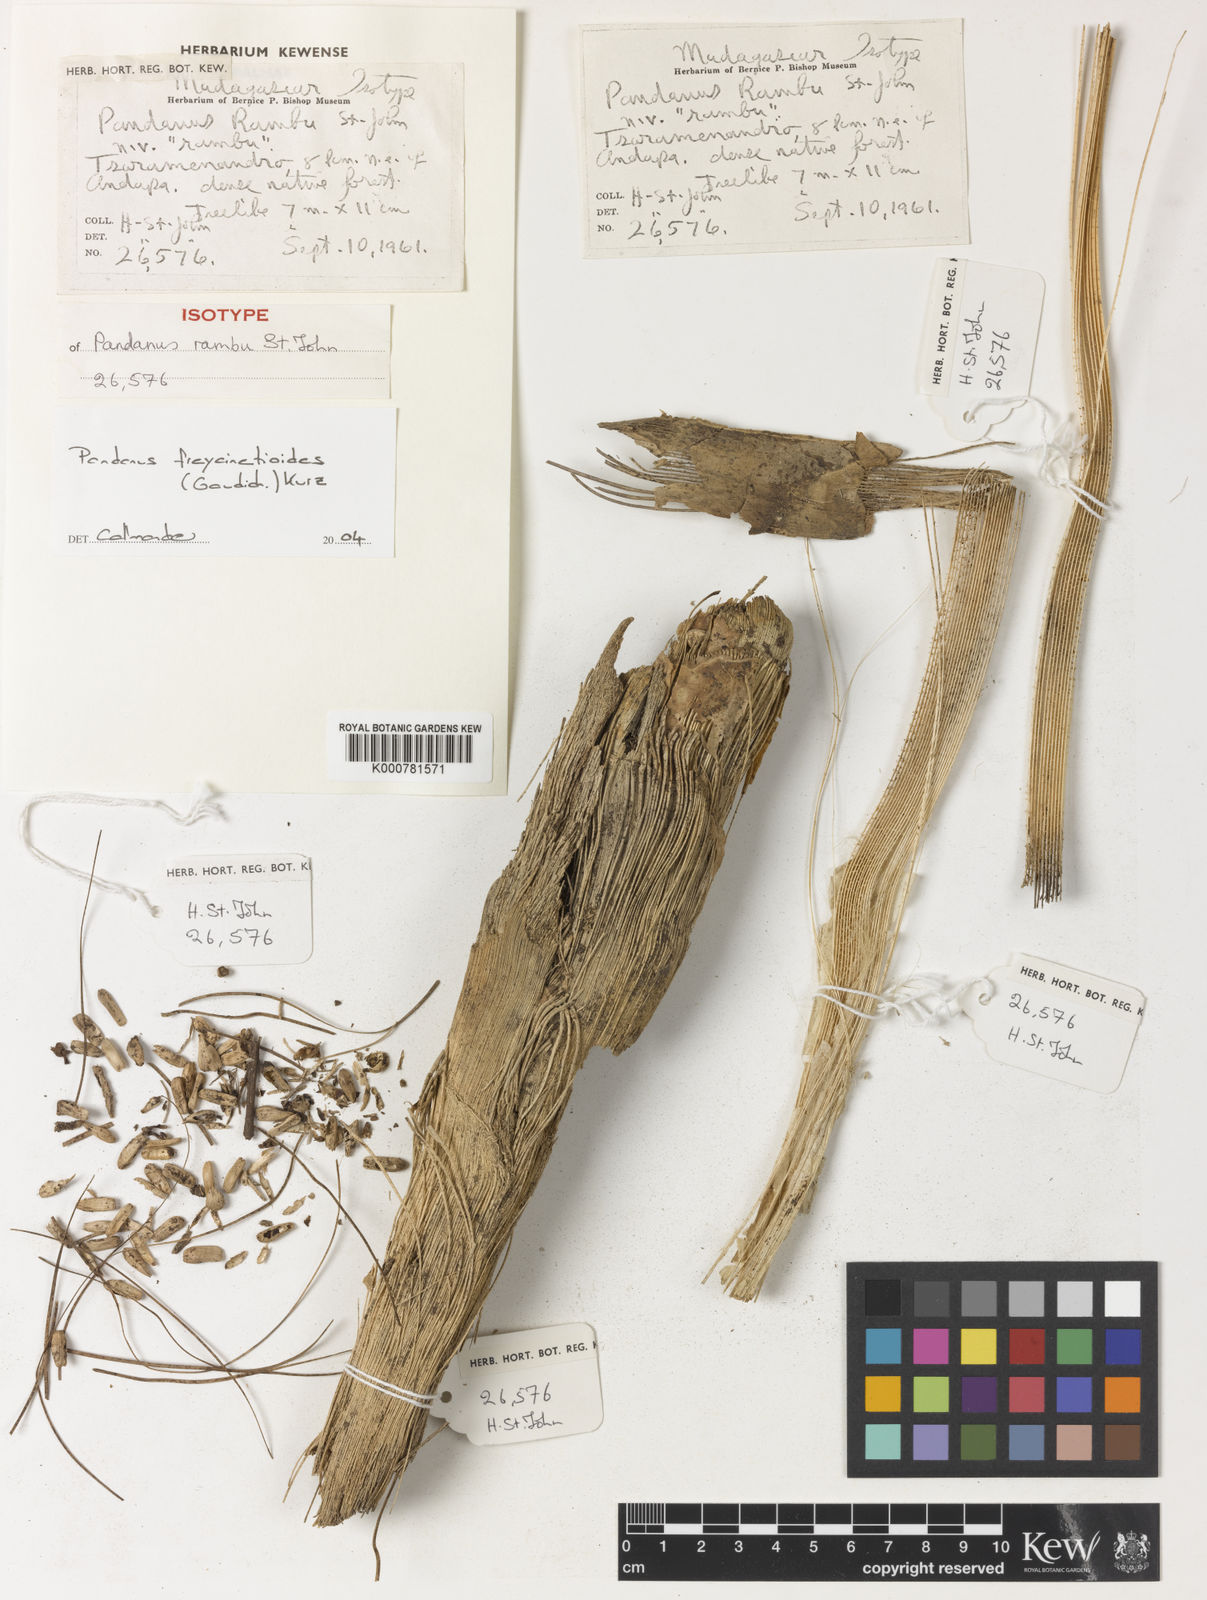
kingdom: Plantae
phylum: Tracheophyta
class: Liliopsida
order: Pandanales
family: Pandanaceae
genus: Pandanus
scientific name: Pandanus polycephalus
